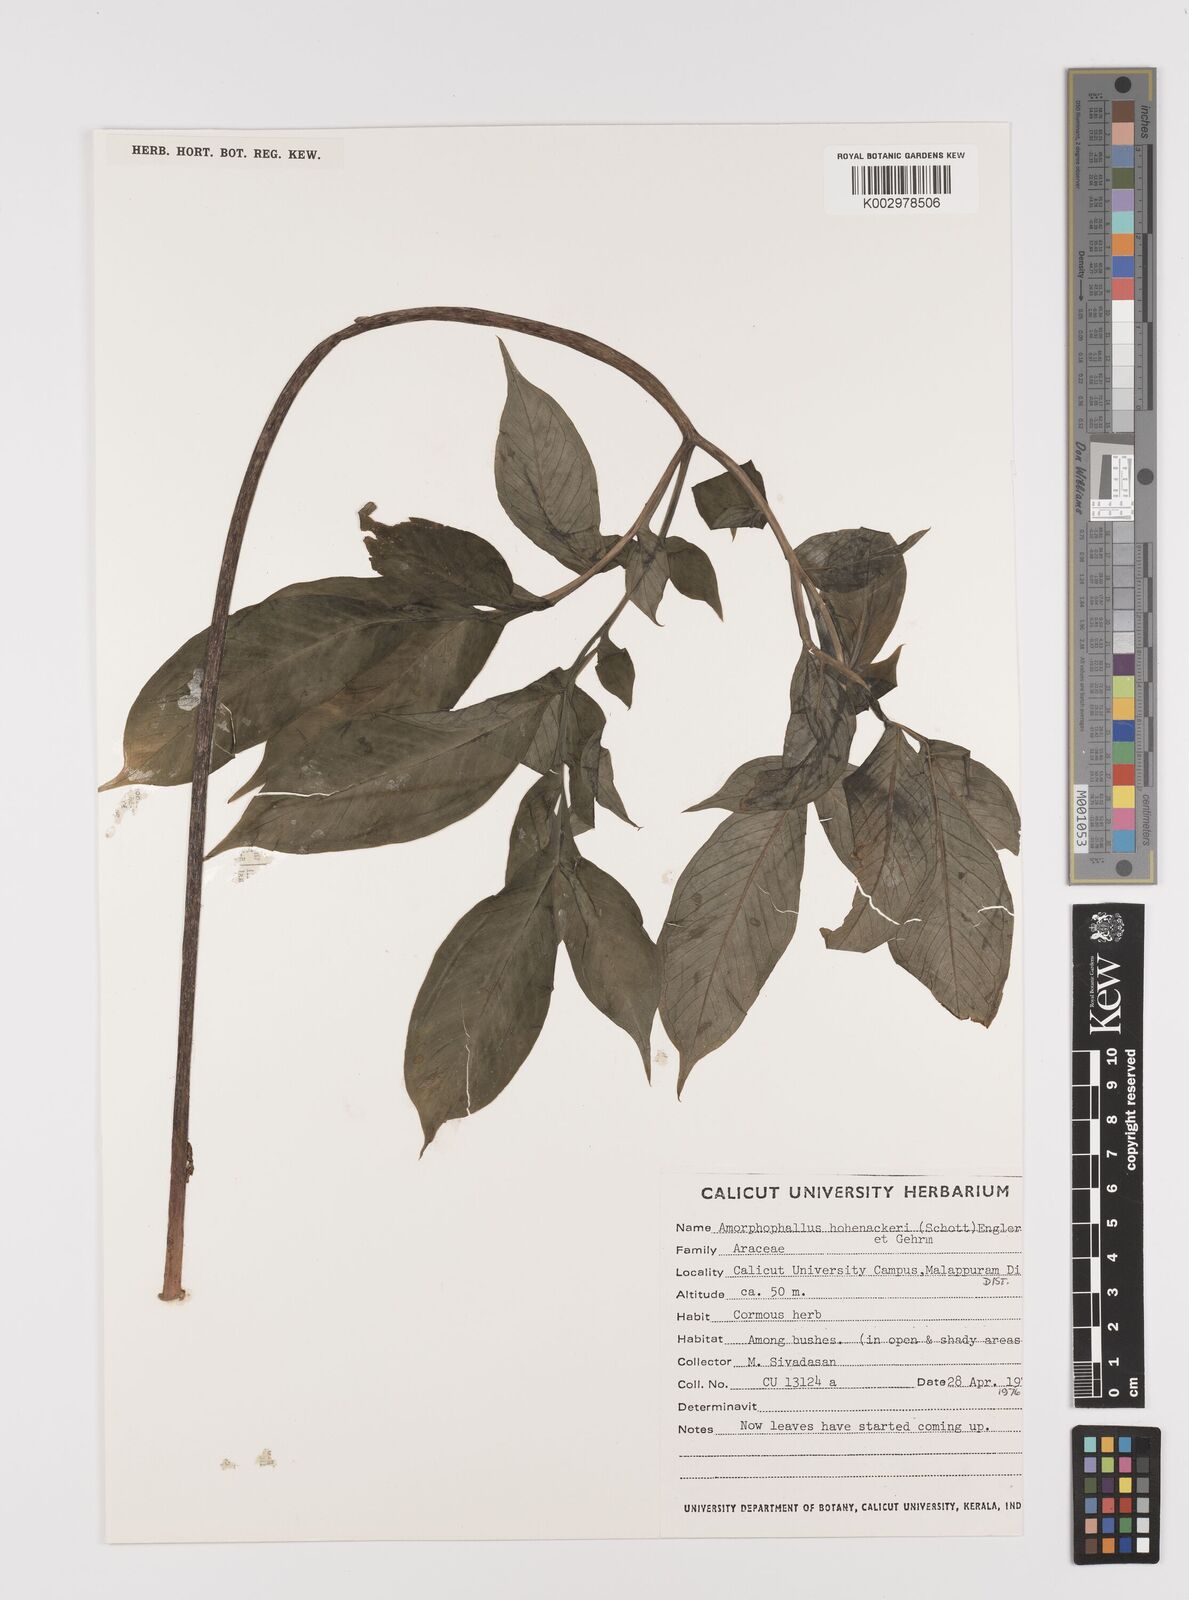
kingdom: Plantae
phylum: Tracheophyta
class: Liliopsida
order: Alismatales
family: Araceae
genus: Amorphophallus
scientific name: Amorphophallus hohenackeri
